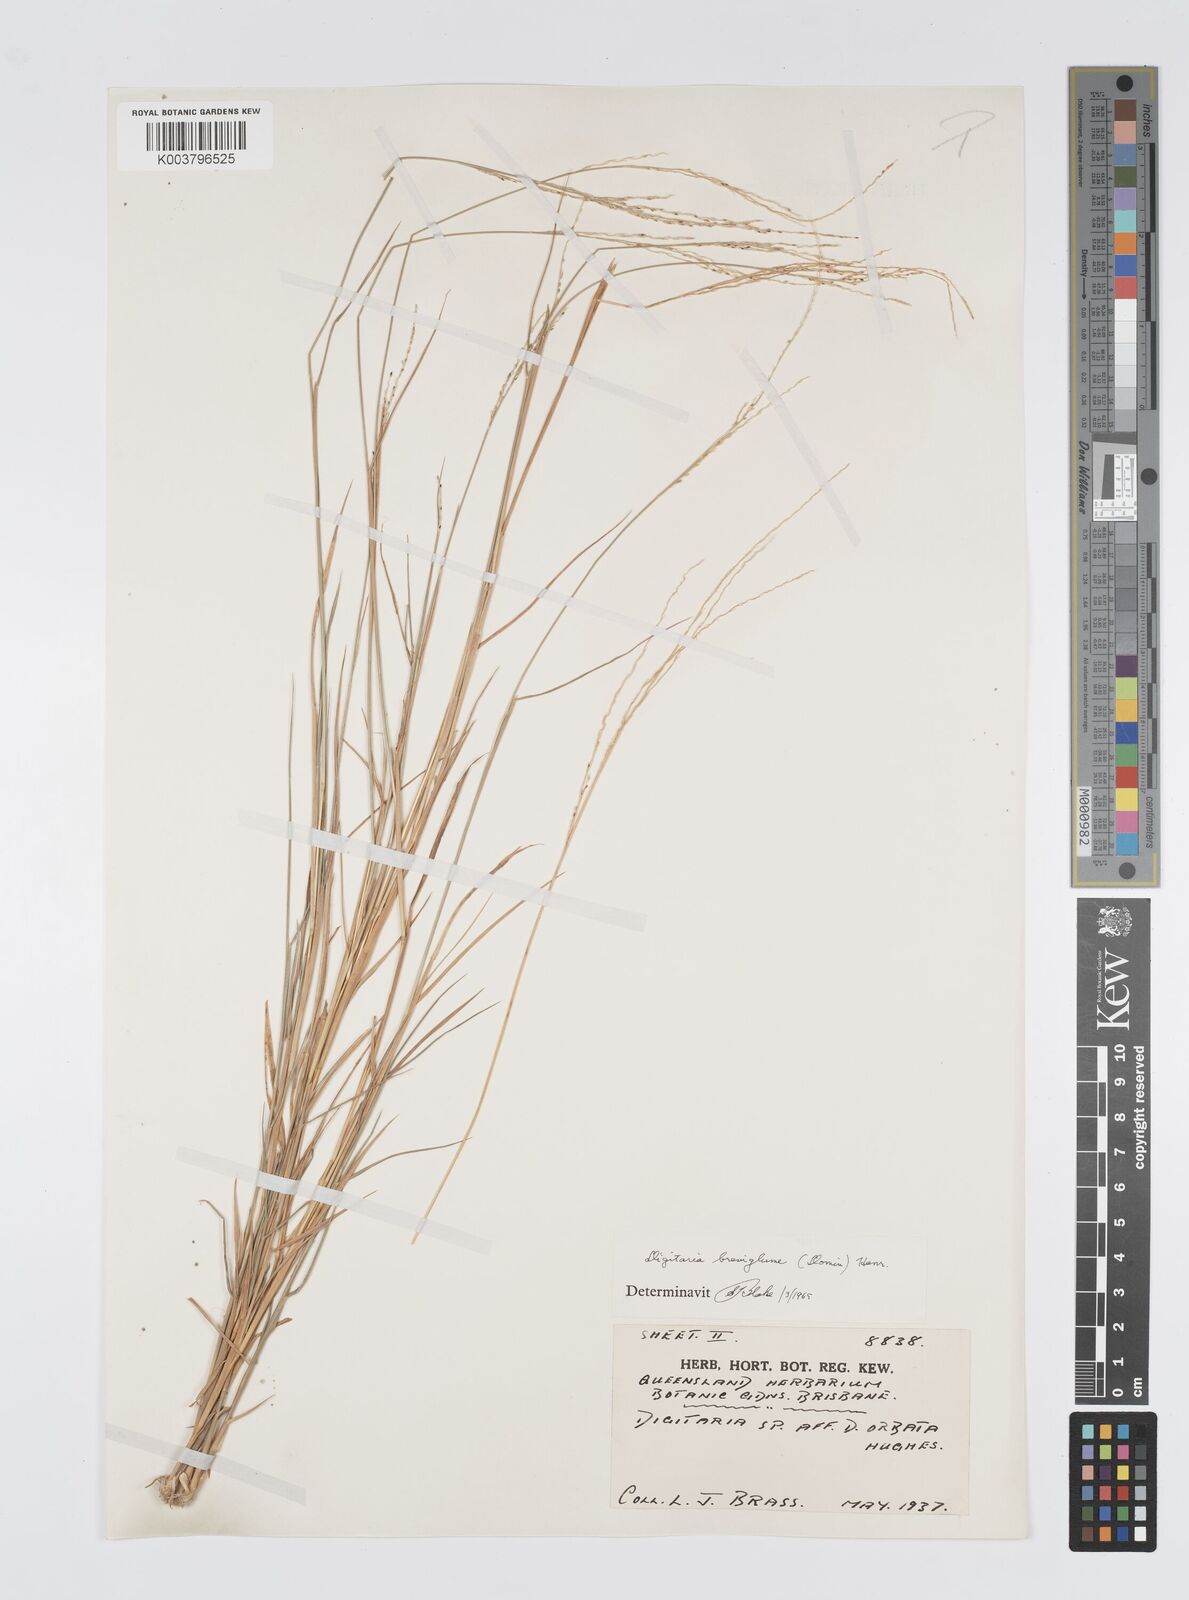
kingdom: Plantae
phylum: Tracheophyta
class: Liliopsida
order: Poales
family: Poaceae
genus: Digitaria
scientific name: Digitaria breviglumis
